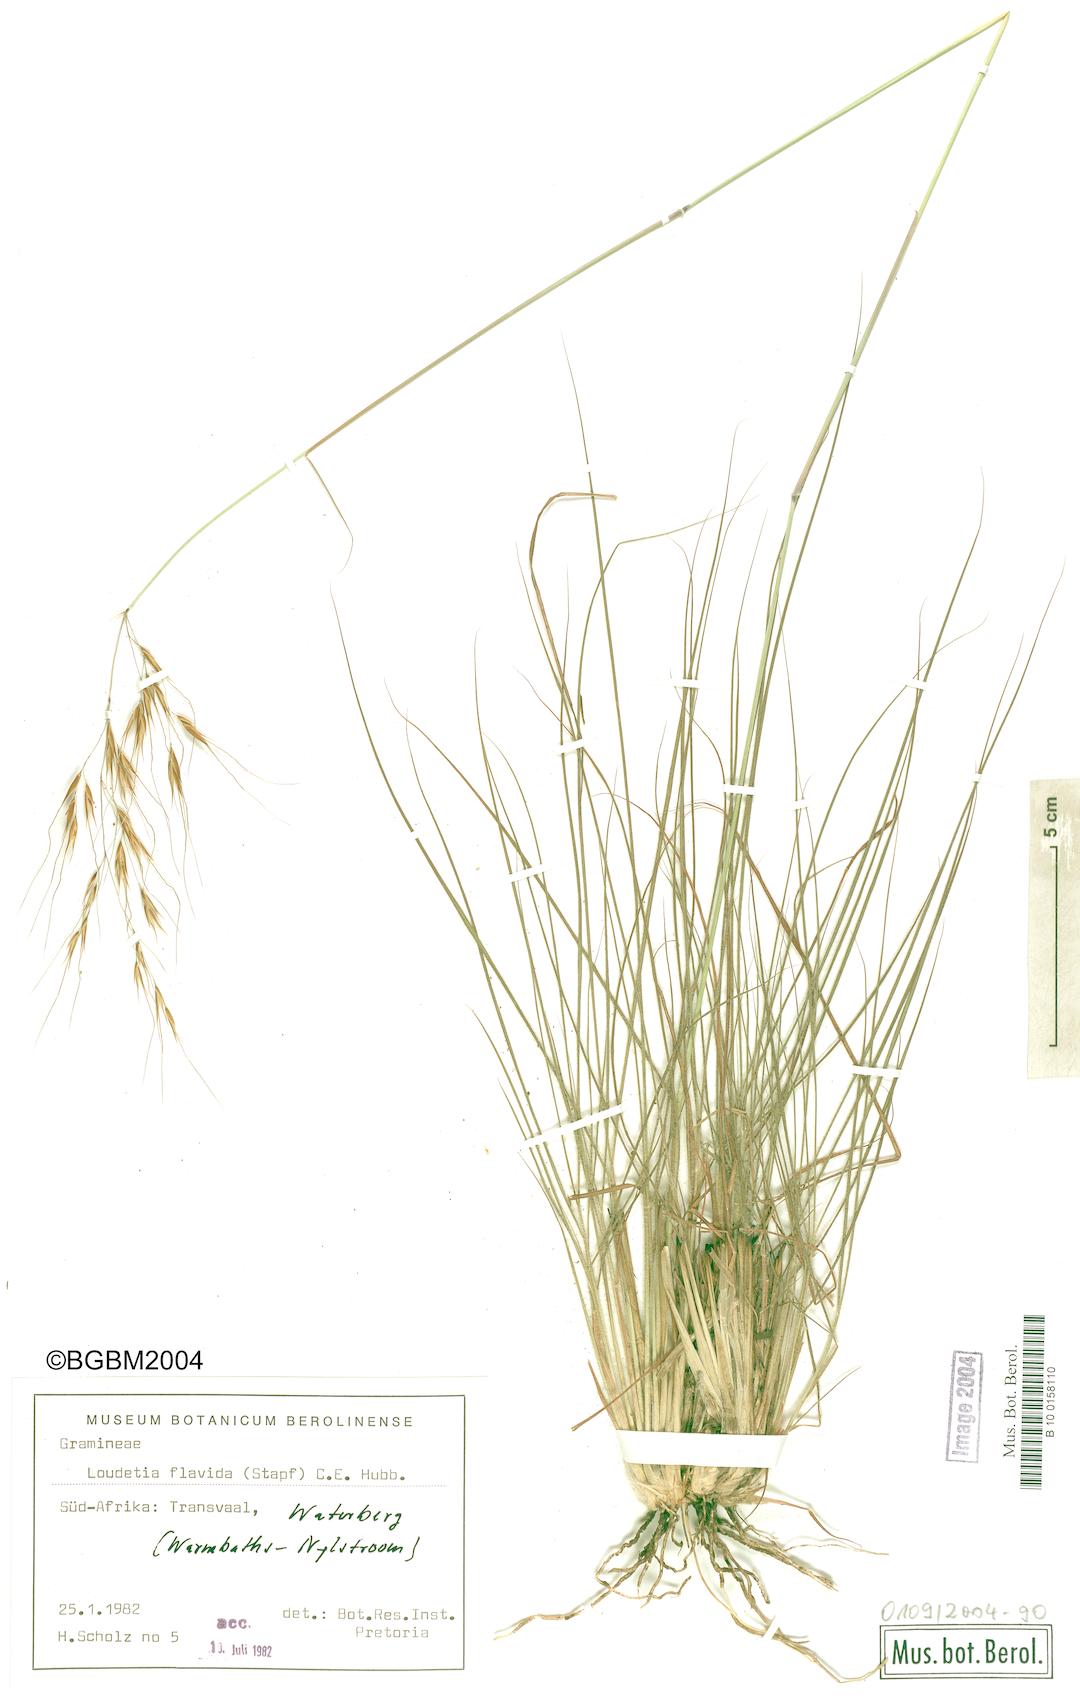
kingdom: Plantae
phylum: Tracheophyta
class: Liliopsida
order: Poales
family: Poaceae
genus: Loudetia
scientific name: Loudetia flavida
